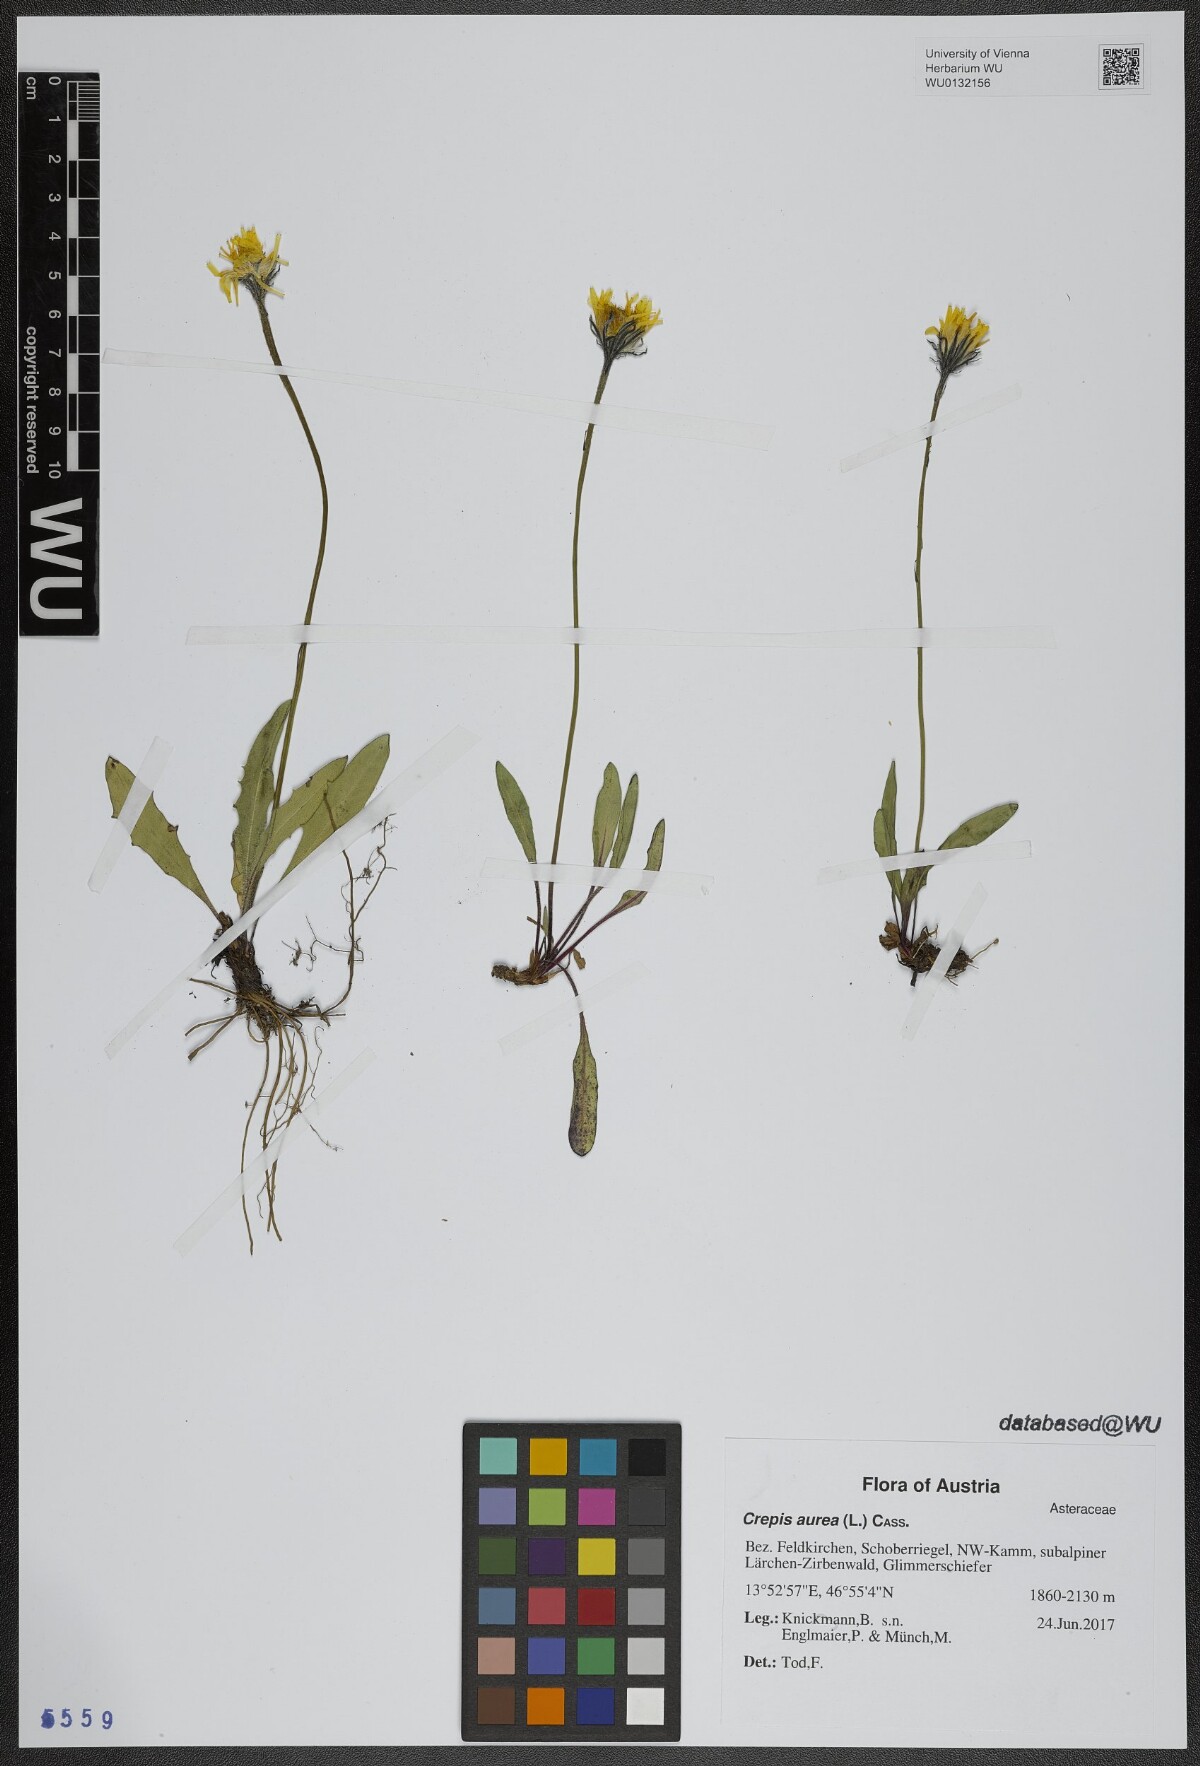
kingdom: Plantae
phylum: Tracheophyta
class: Magnoliopsida
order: Asterales
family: Asteraceae
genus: Crepis
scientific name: Crepis aurea
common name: Golden hawk's-beard
